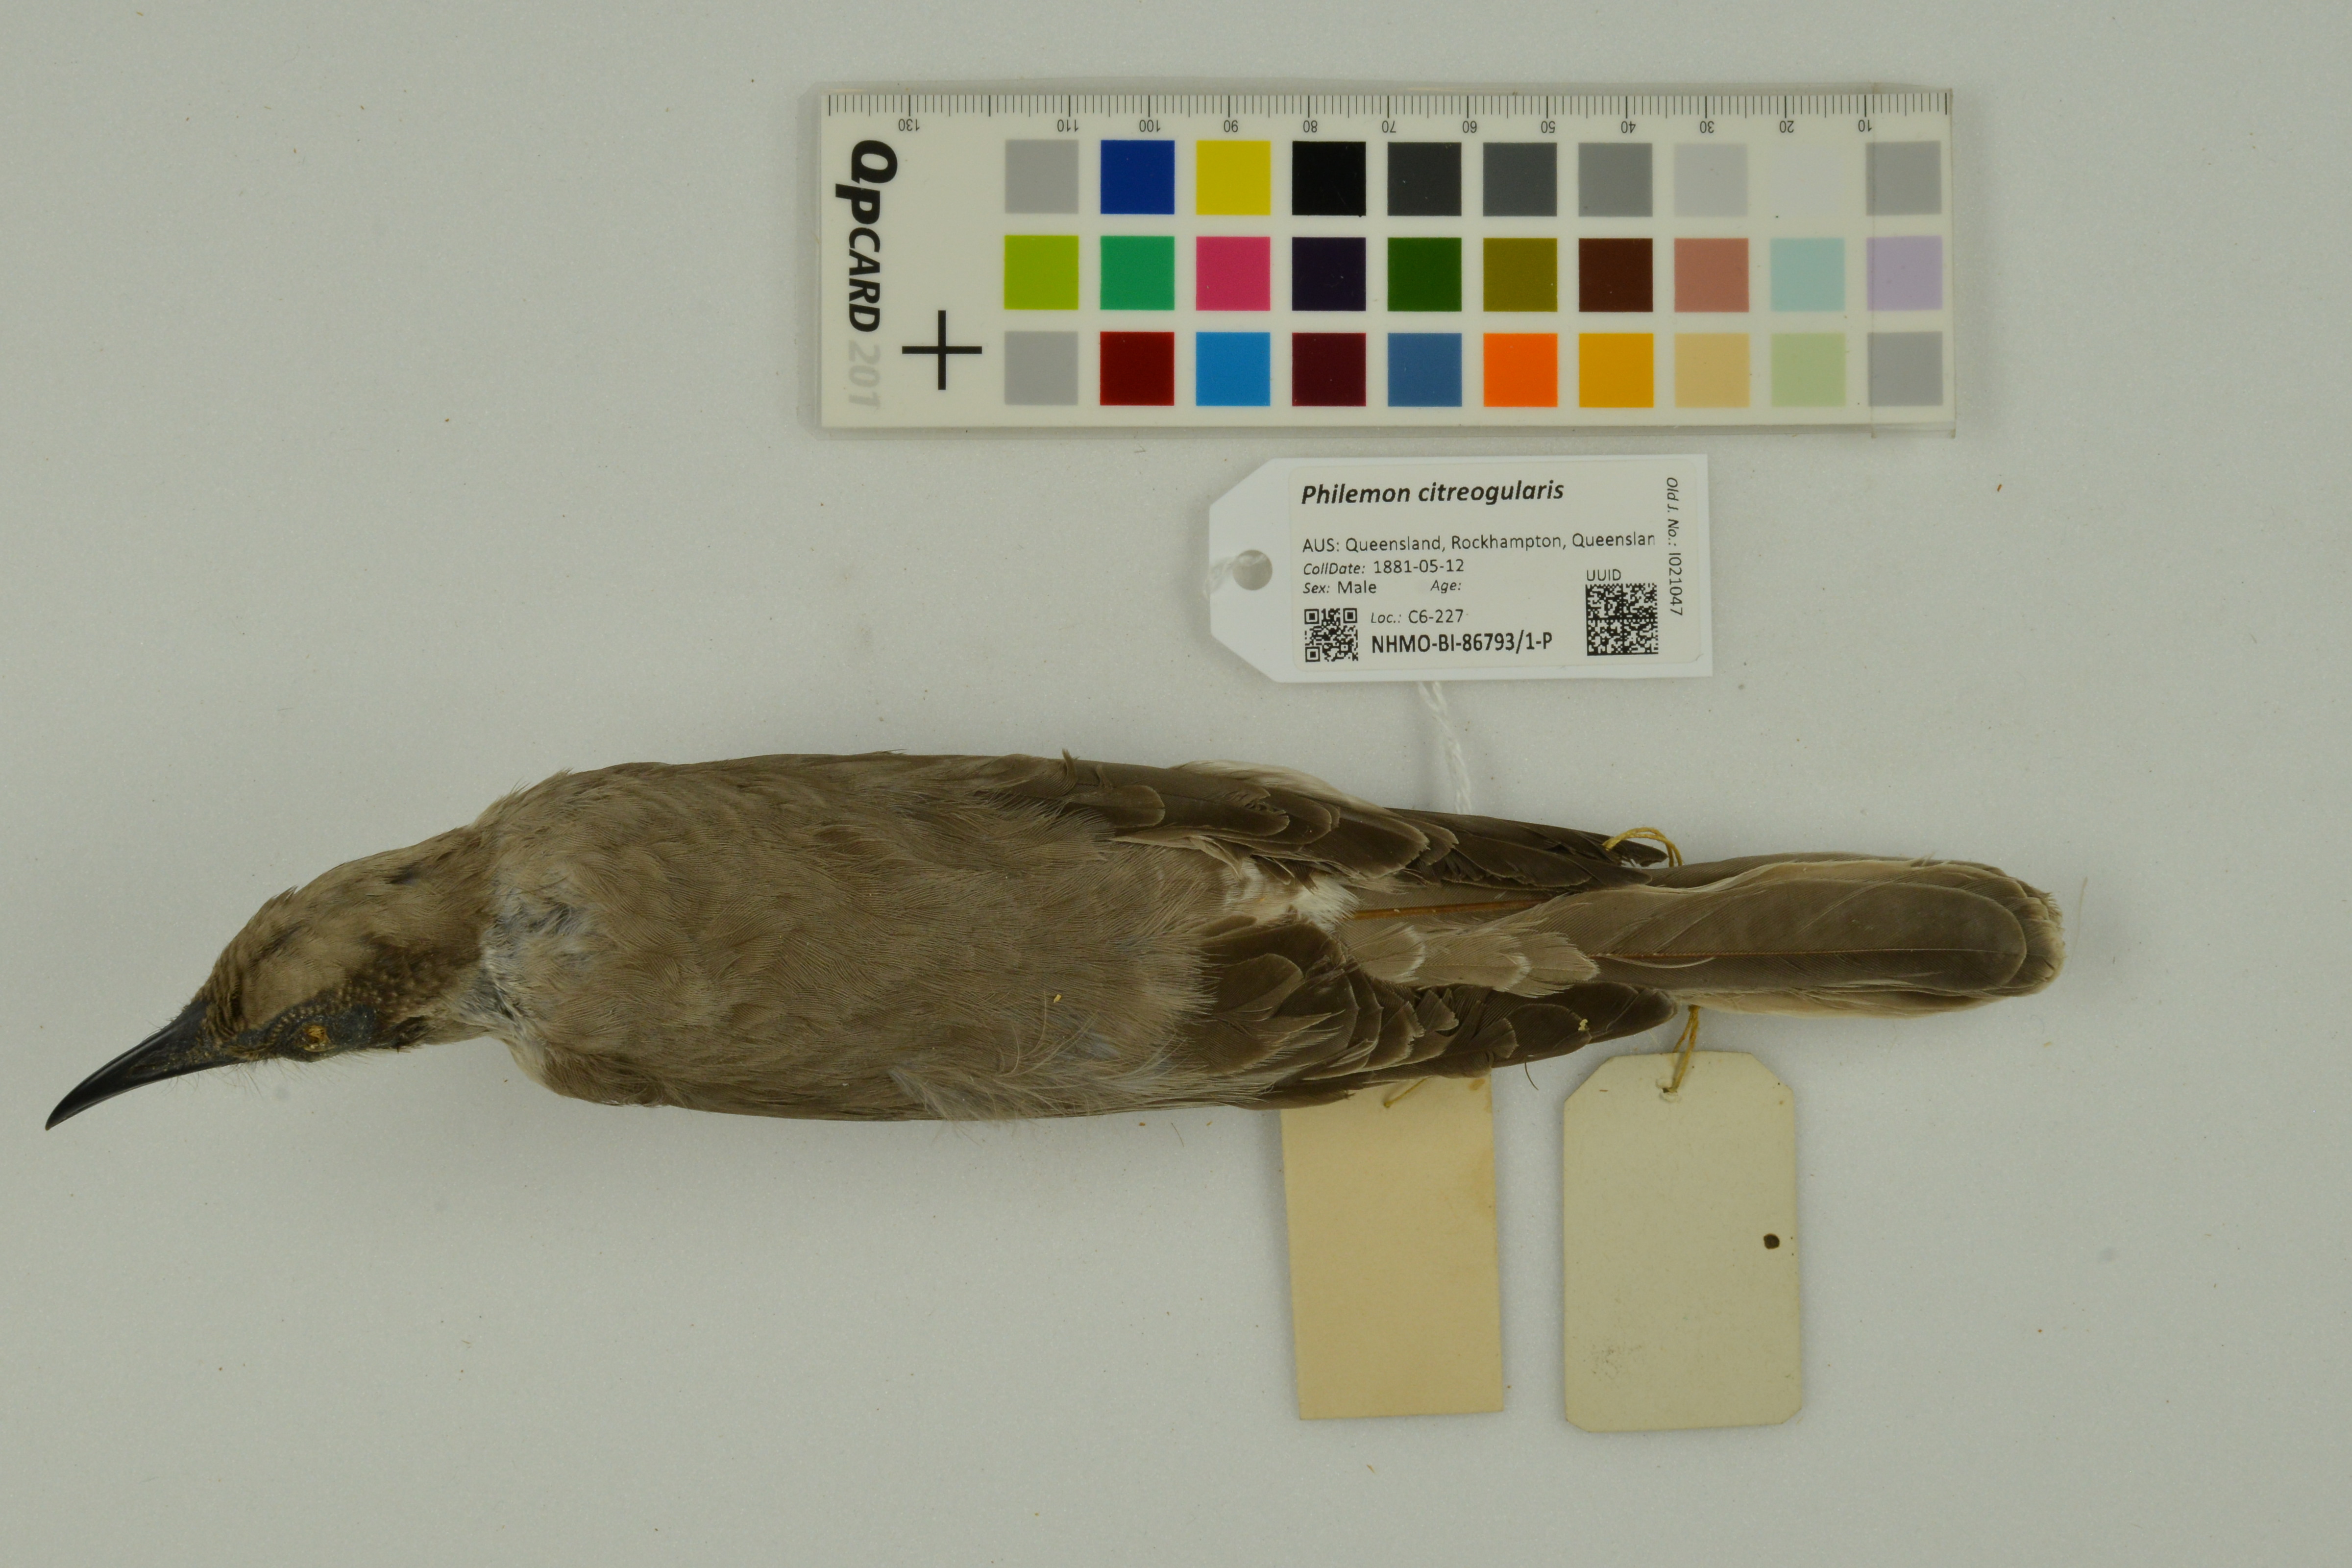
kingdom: Animalia
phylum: Chordata
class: Aves
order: Passeriformes
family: Meliphagidae
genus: Philemon
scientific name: Philemon citreogularis
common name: Little friarbird
